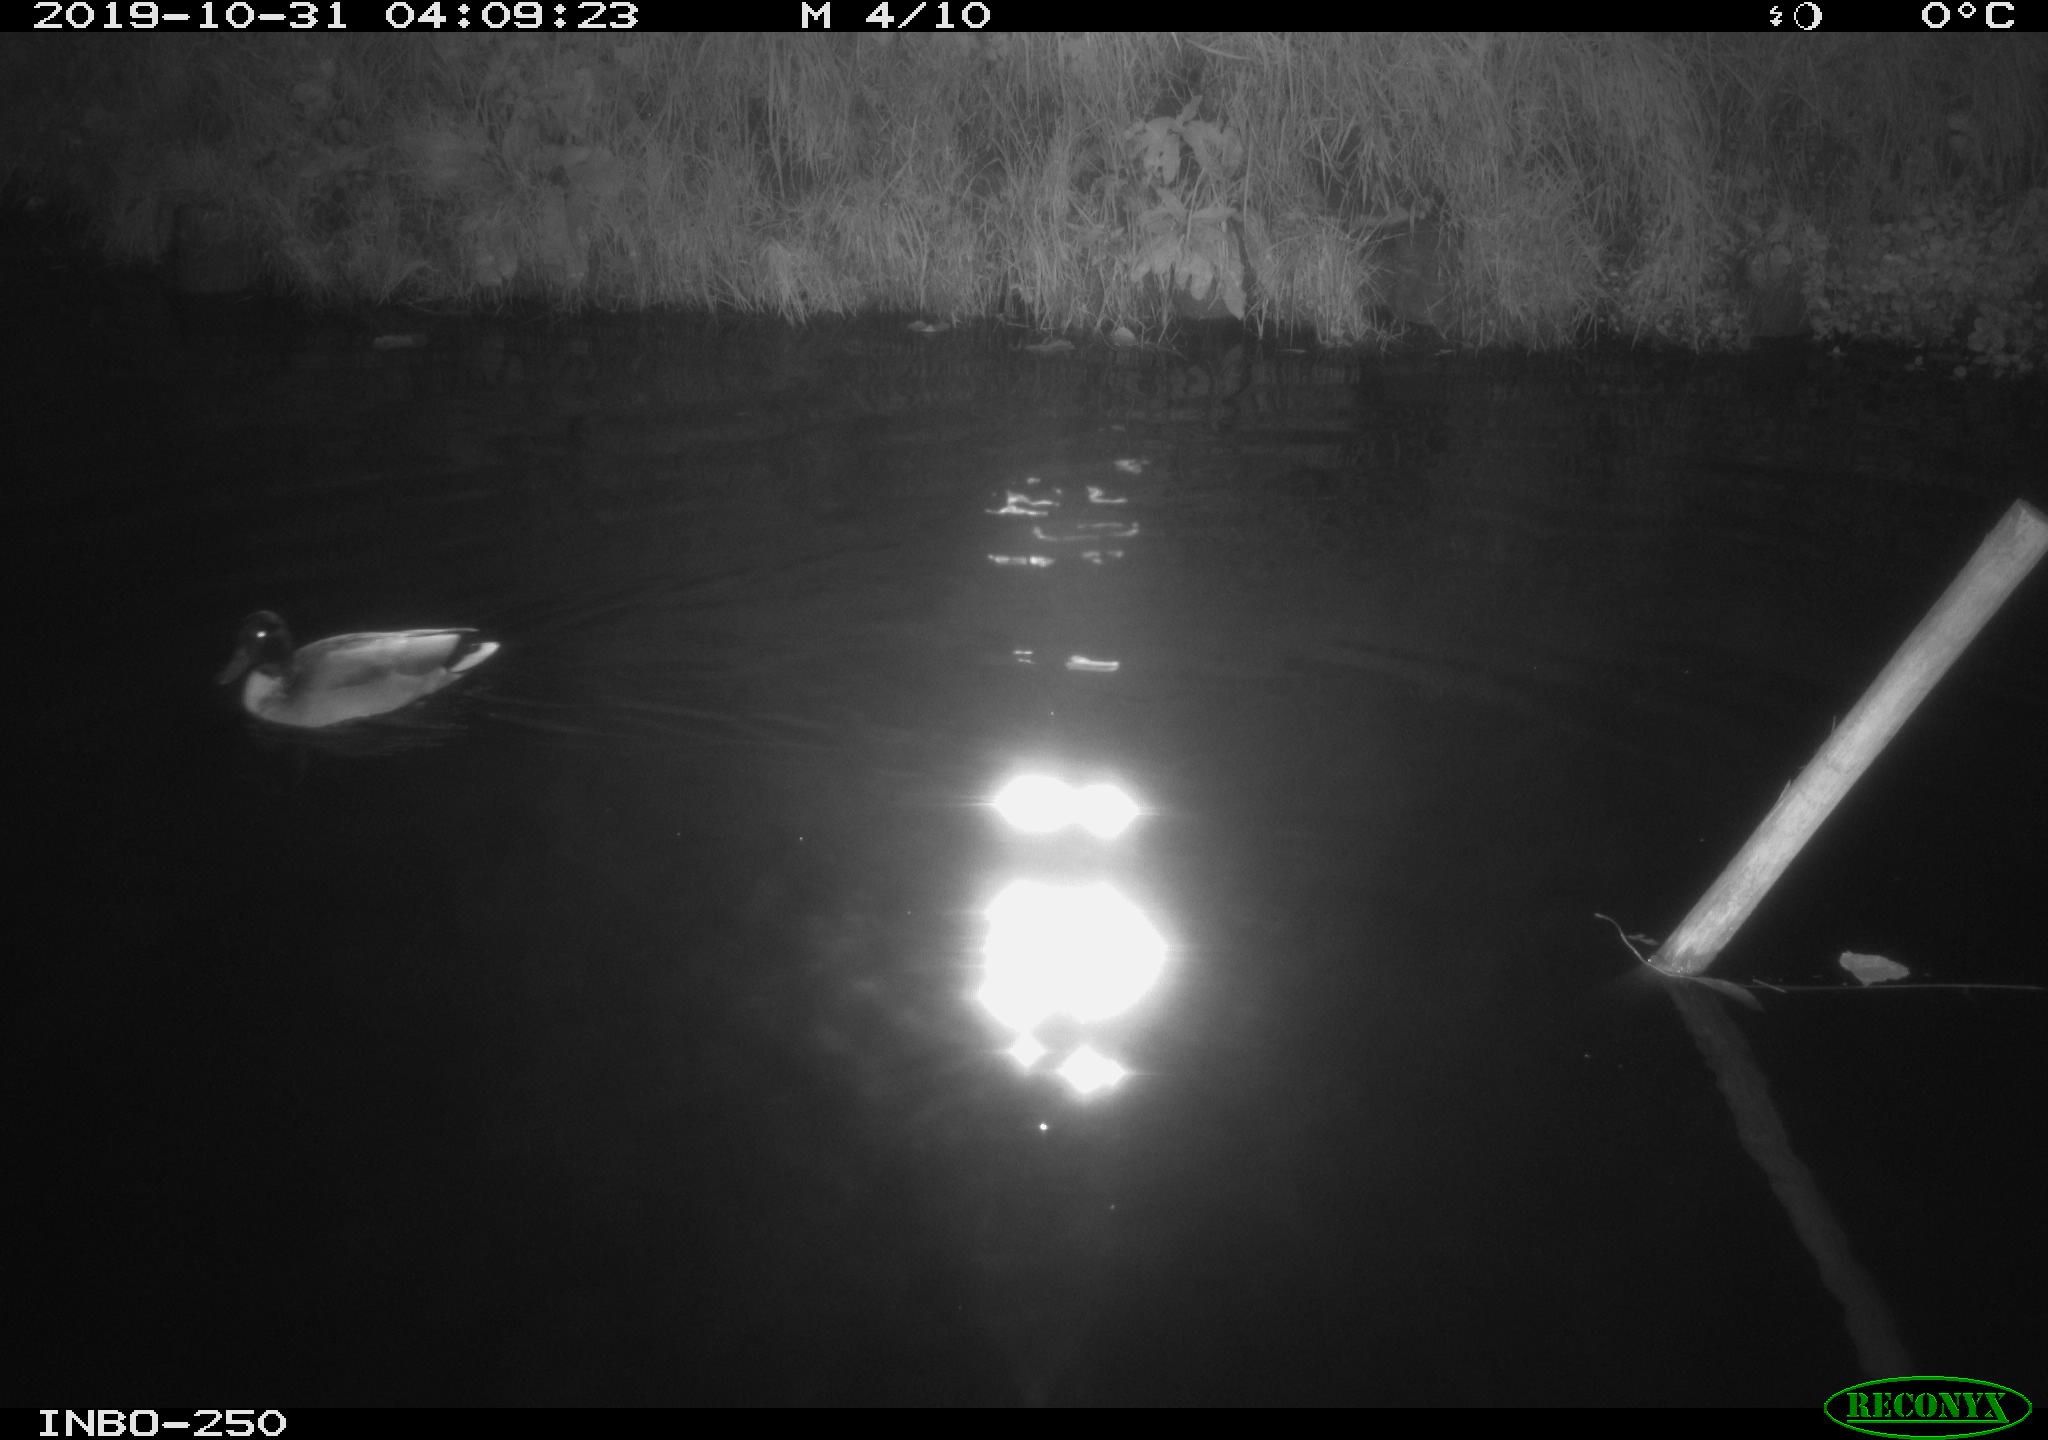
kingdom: Animalia
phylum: Chordata
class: Aves
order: Anseriformes
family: Anatidae
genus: Anas
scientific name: Anas platyrhynchos
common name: Mallard
